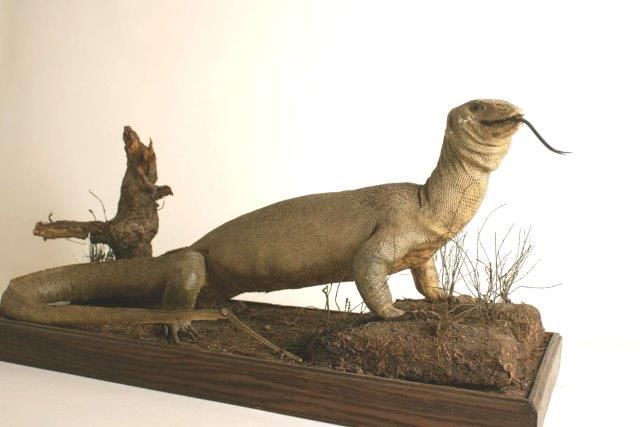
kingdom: Animalia
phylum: Chordata
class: Squamata
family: Varanidae
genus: Varanus
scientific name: Varanus exanthematicus
